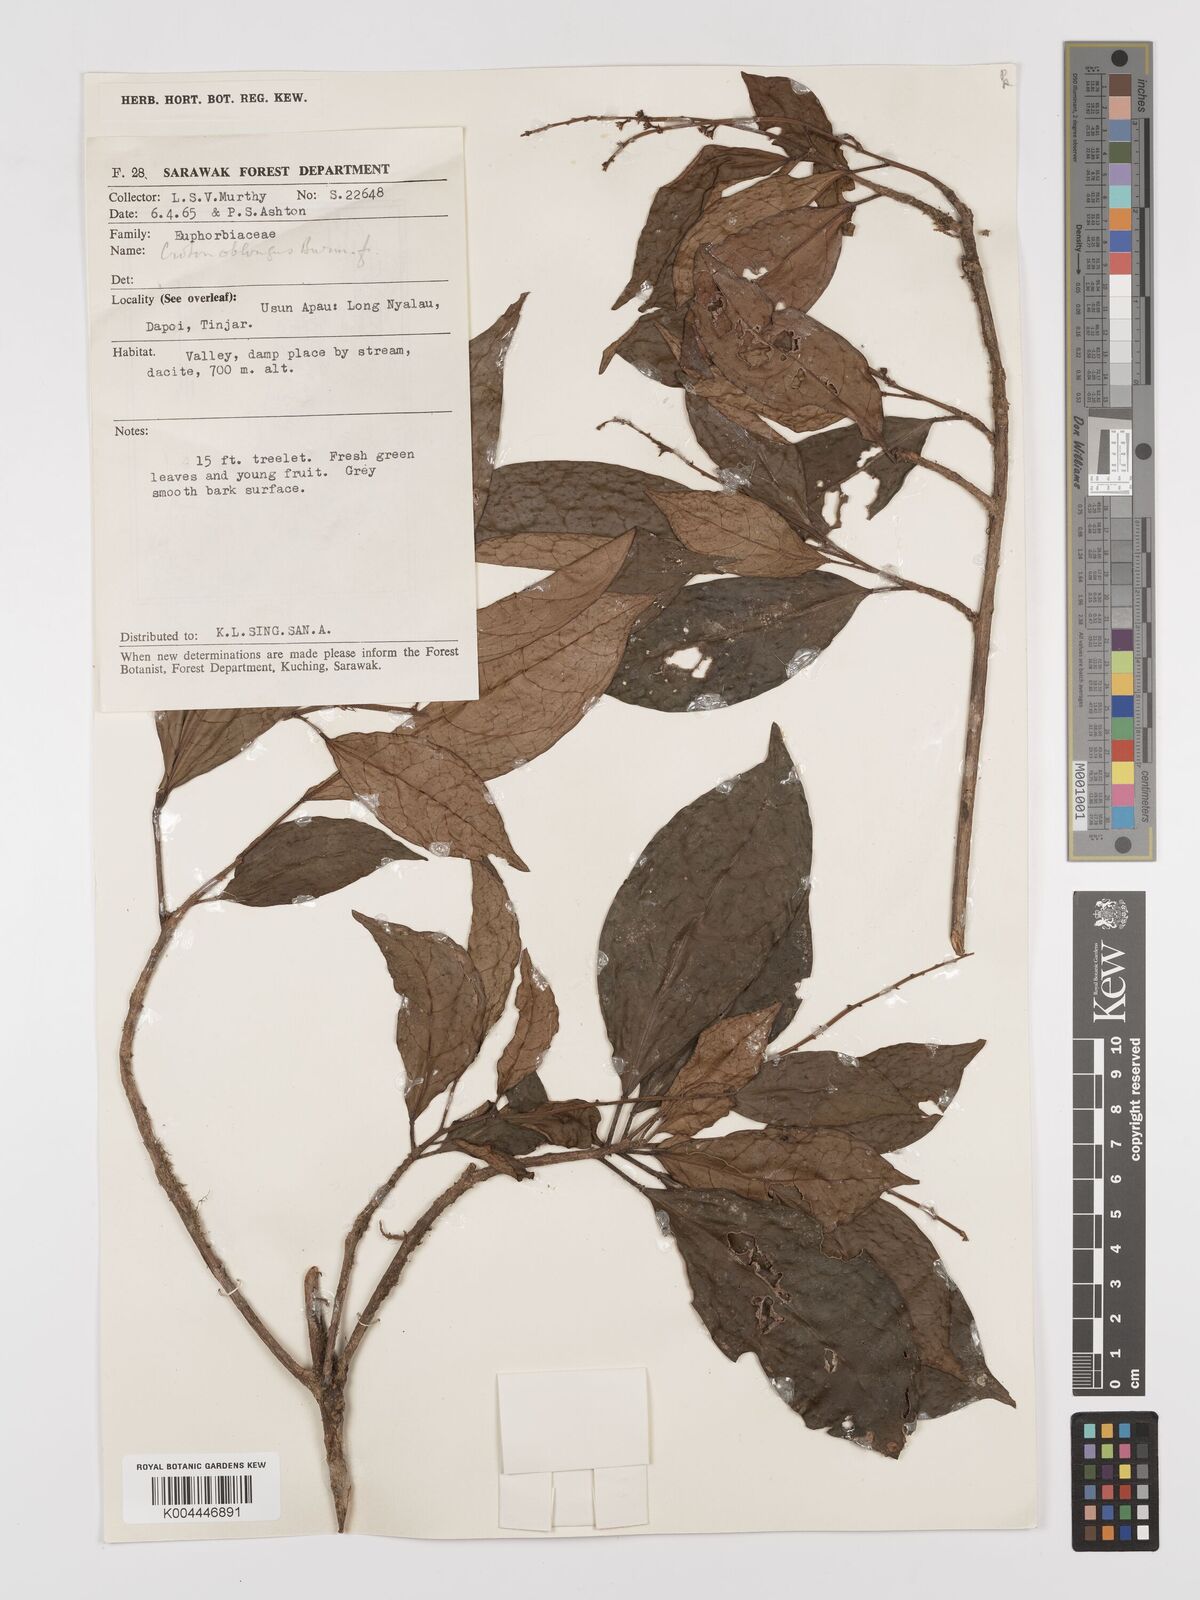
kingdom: Plantae
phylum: Tracheophyta
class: Magnoliopsida
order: Malpighiales
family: Euphorbiaceae
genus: Croton
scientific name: Croton oblongus
